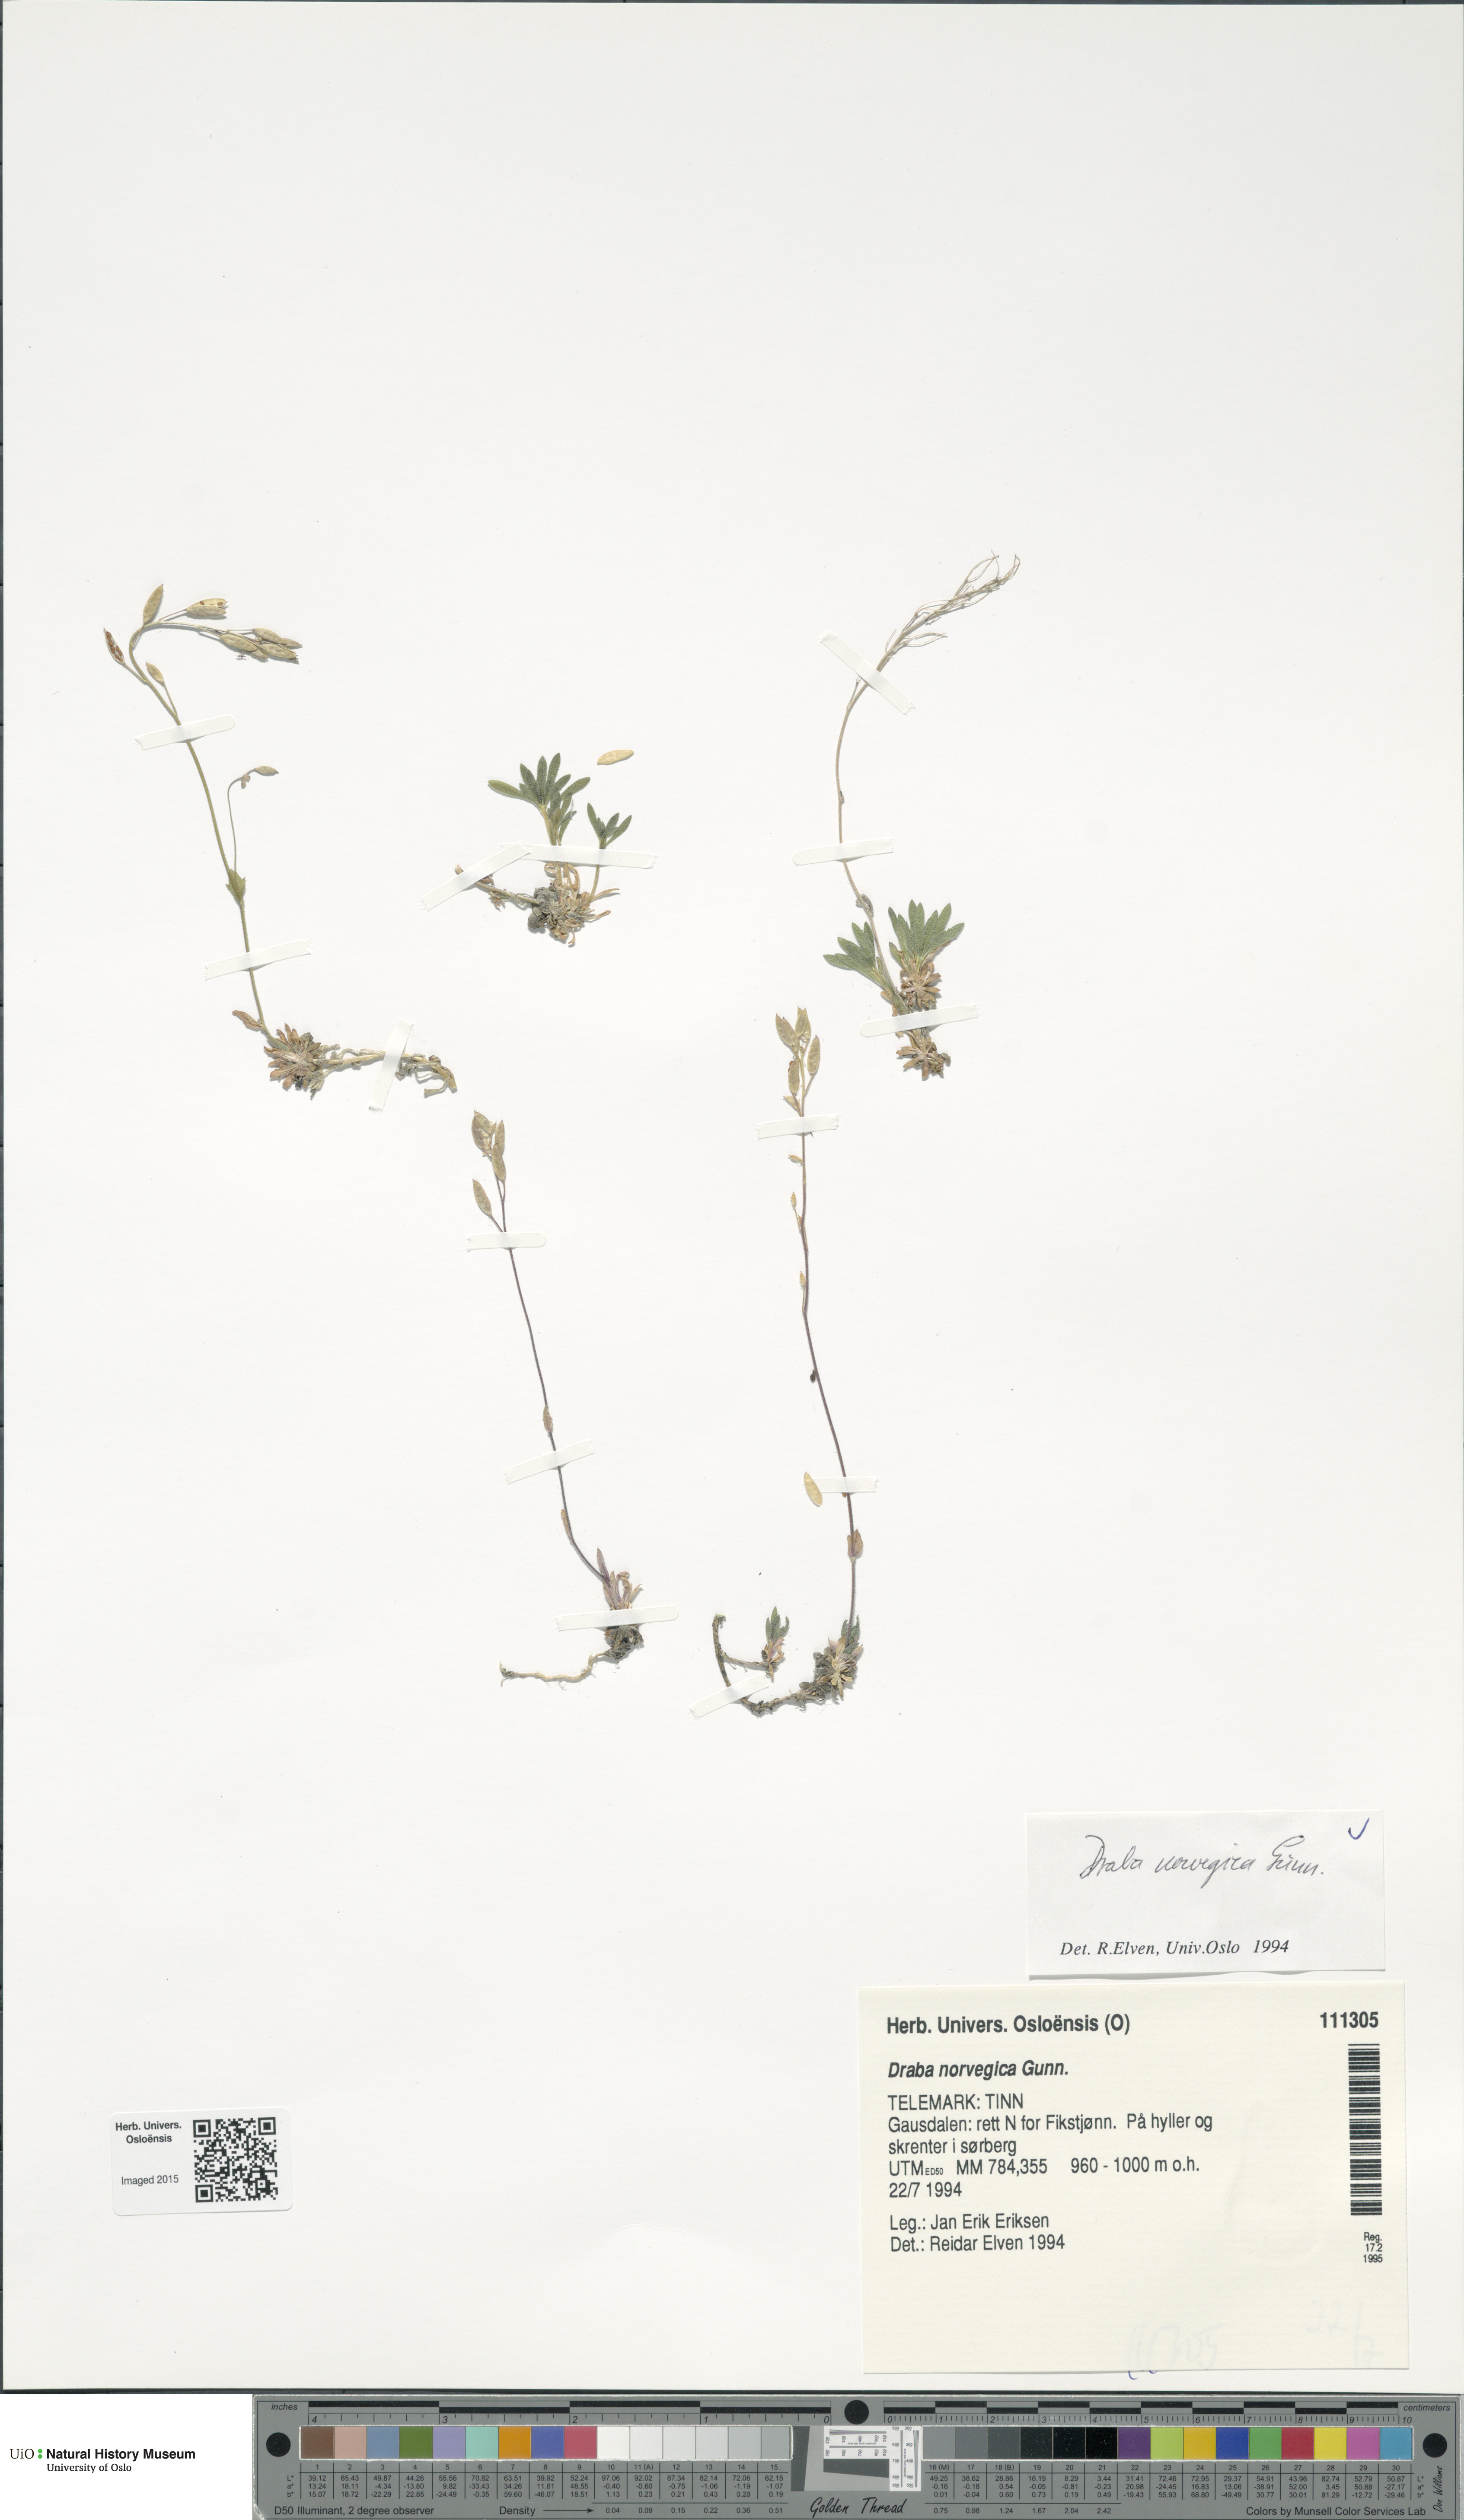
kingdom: Plantae
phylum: Tracheophyta
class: Magnoliopsida
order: Brassicales
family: Brassicaceae
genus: Draba
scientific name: Draba norvegica
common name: Rock whitlowgrass
